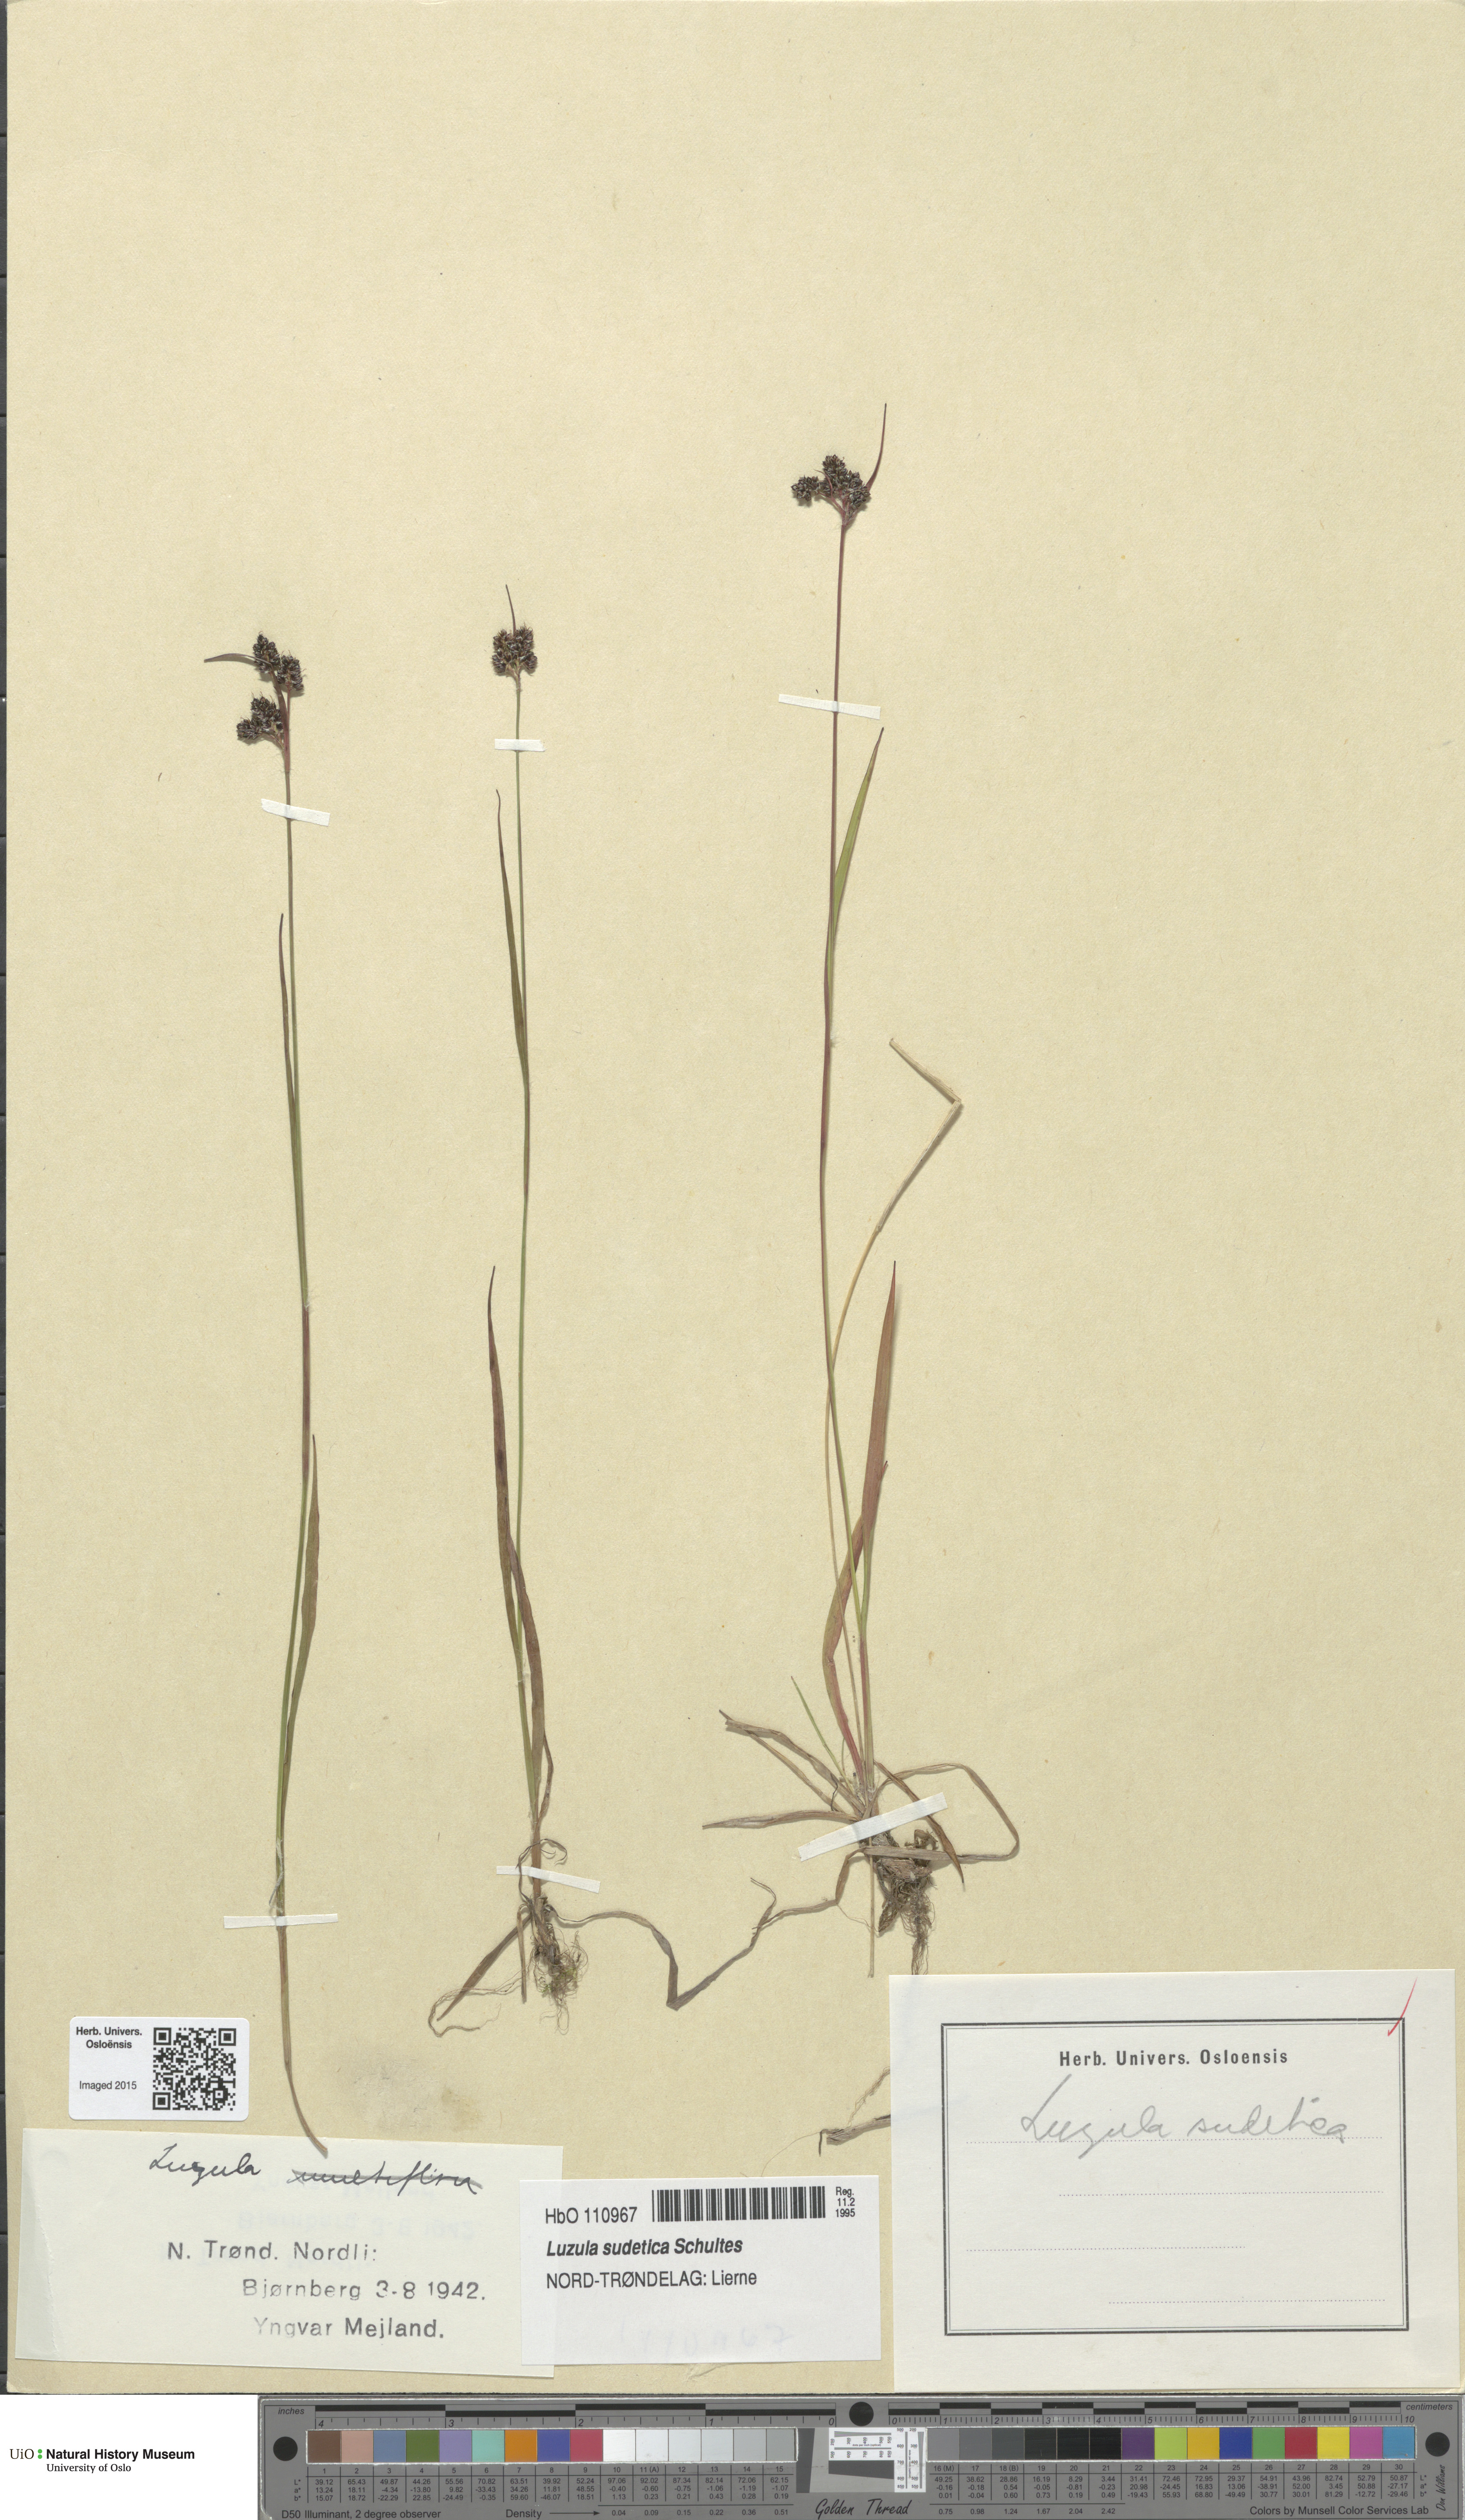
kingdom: Plantae
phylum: Tracheophyta
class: Liliopsida
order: Poales
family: Juncaceae
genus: Luzula
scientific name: Luzula sudetica
